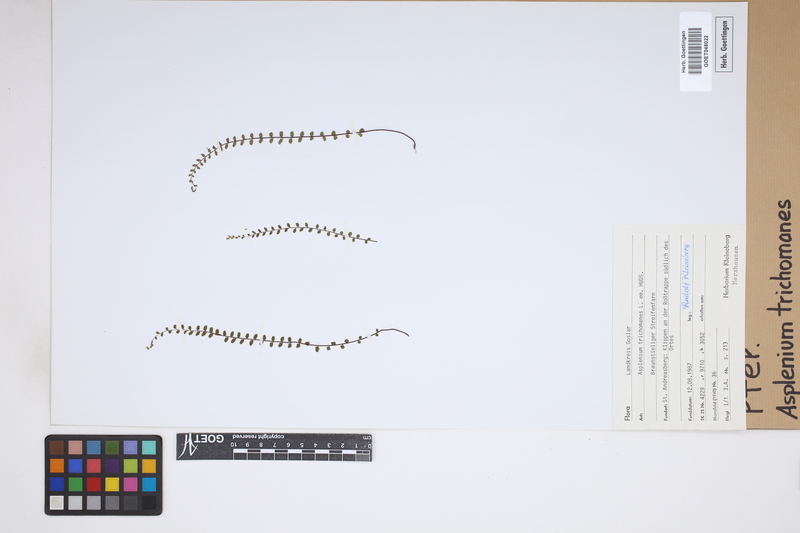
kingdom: Plantae
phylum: Tracheophyta
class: Polypodiopsida
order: Polypodiales
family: Aspleniaceae
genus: Asplenium
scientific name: Asplenium trichomanes
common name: Maidenhair spleenwort
